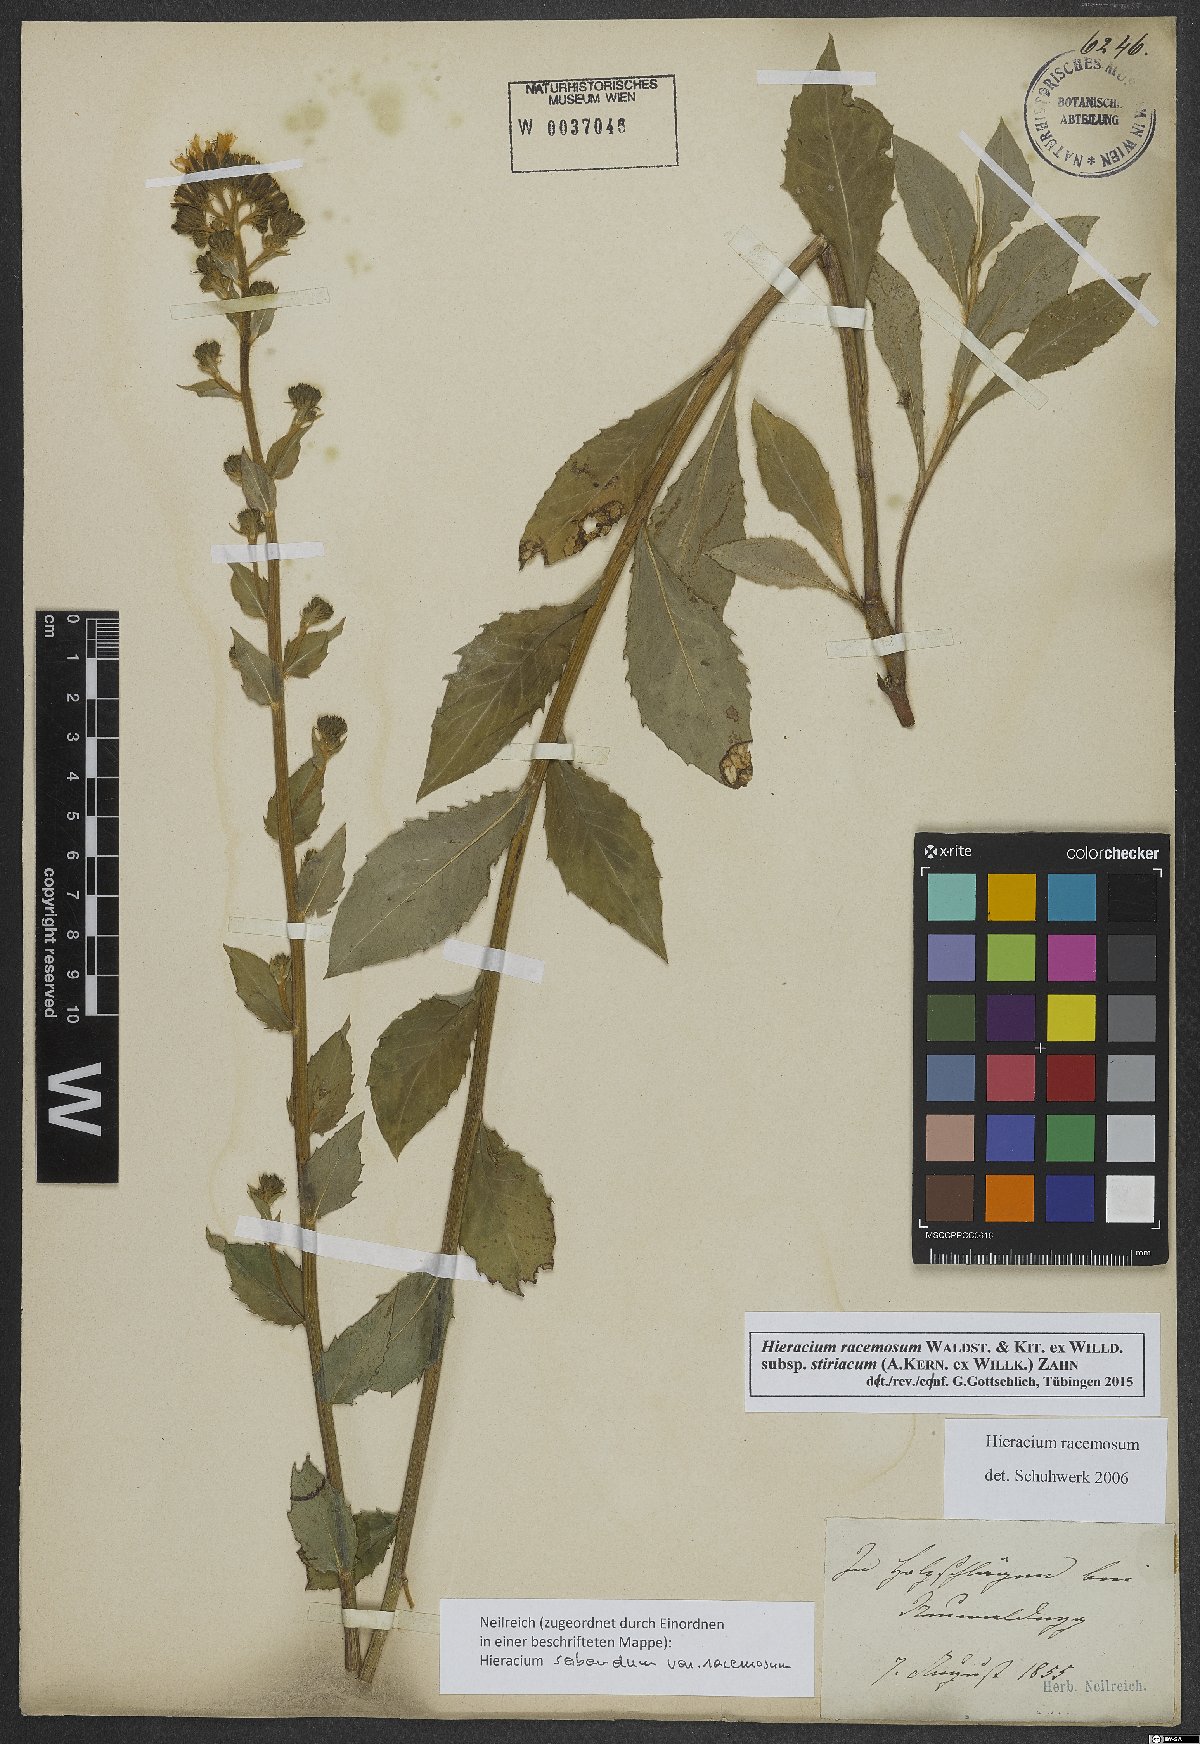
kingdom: Plantae
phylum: Tracheophyta
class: Magnoliopsida
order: Asterales
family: Asteraceae
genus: Hieracium
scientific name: Hieracium racemosum
